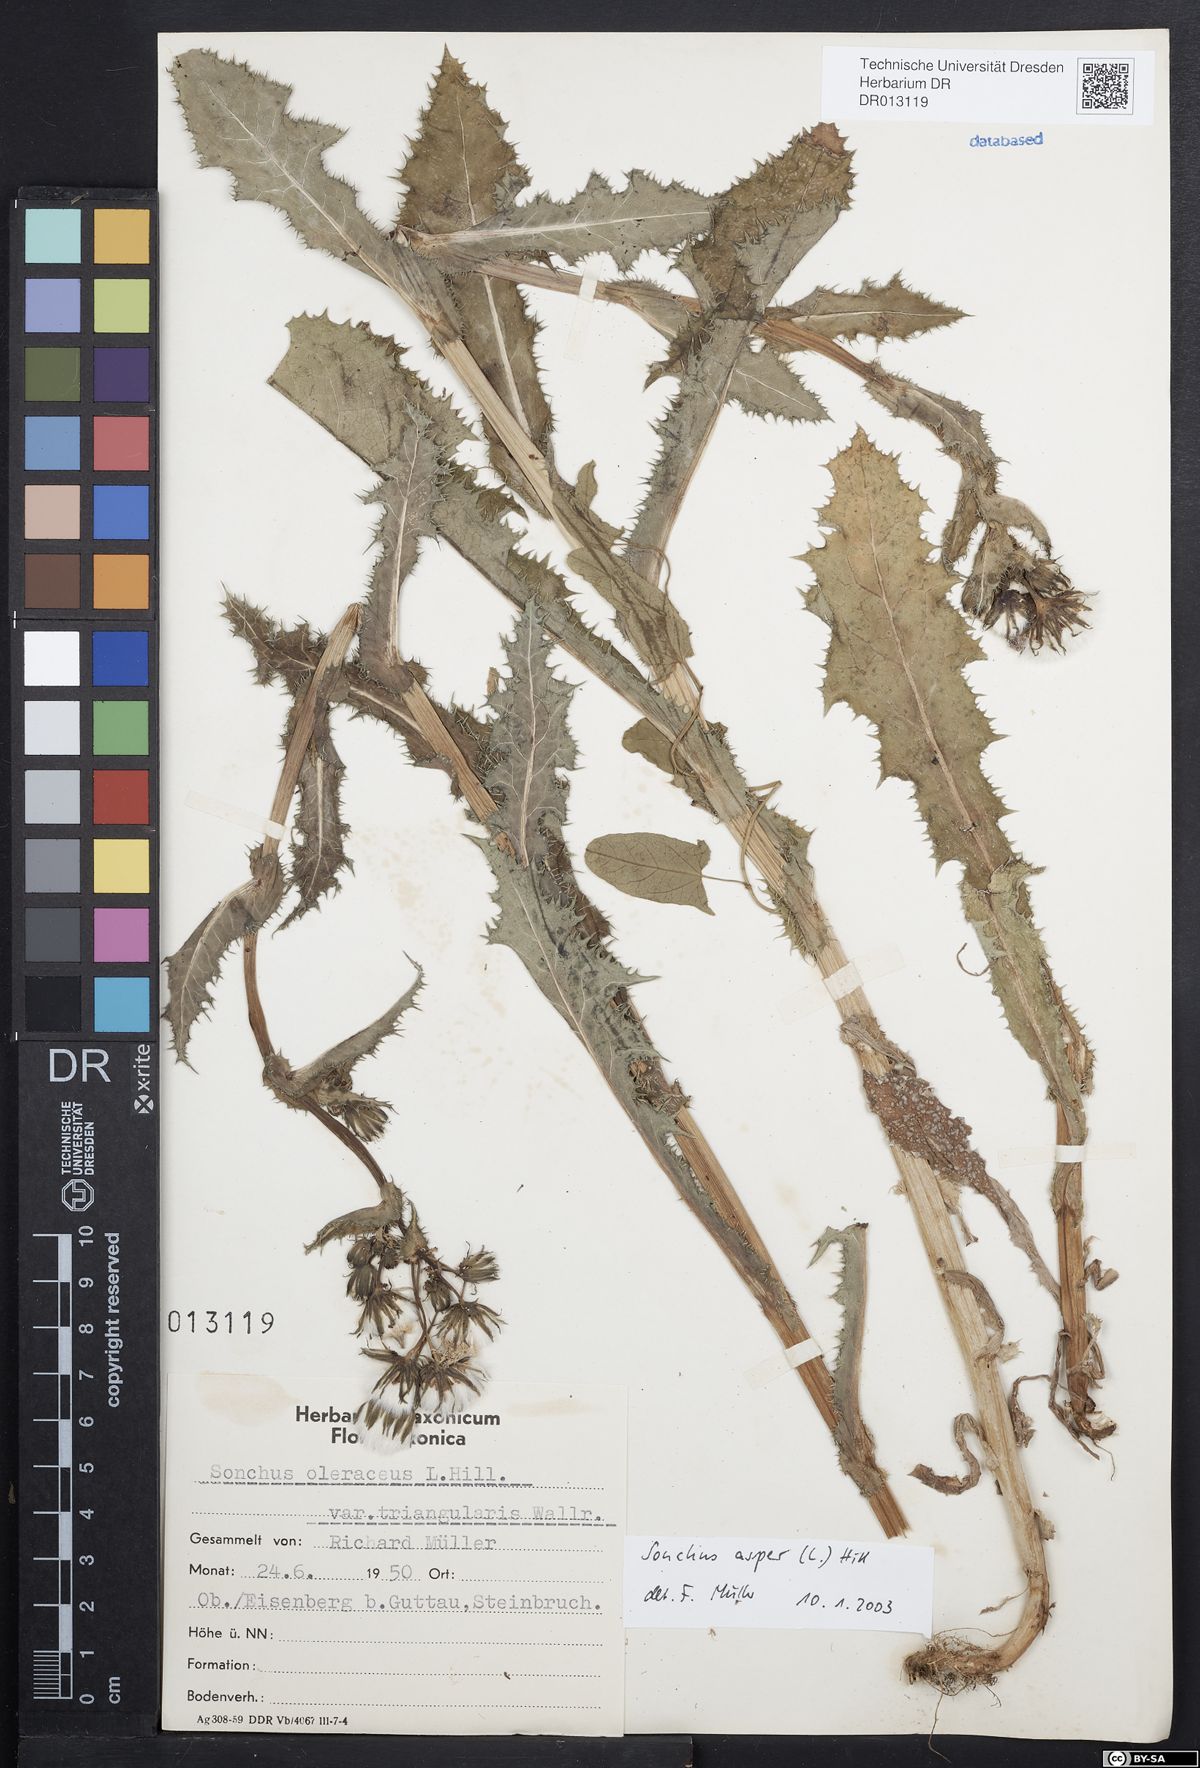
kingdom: Plantae
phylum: Tracheophyta
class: Magnoliopsida
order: Asterales
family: Asteraceae
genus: Sonchus
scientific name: Sonchus asper
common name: Prickly sow-thistle
